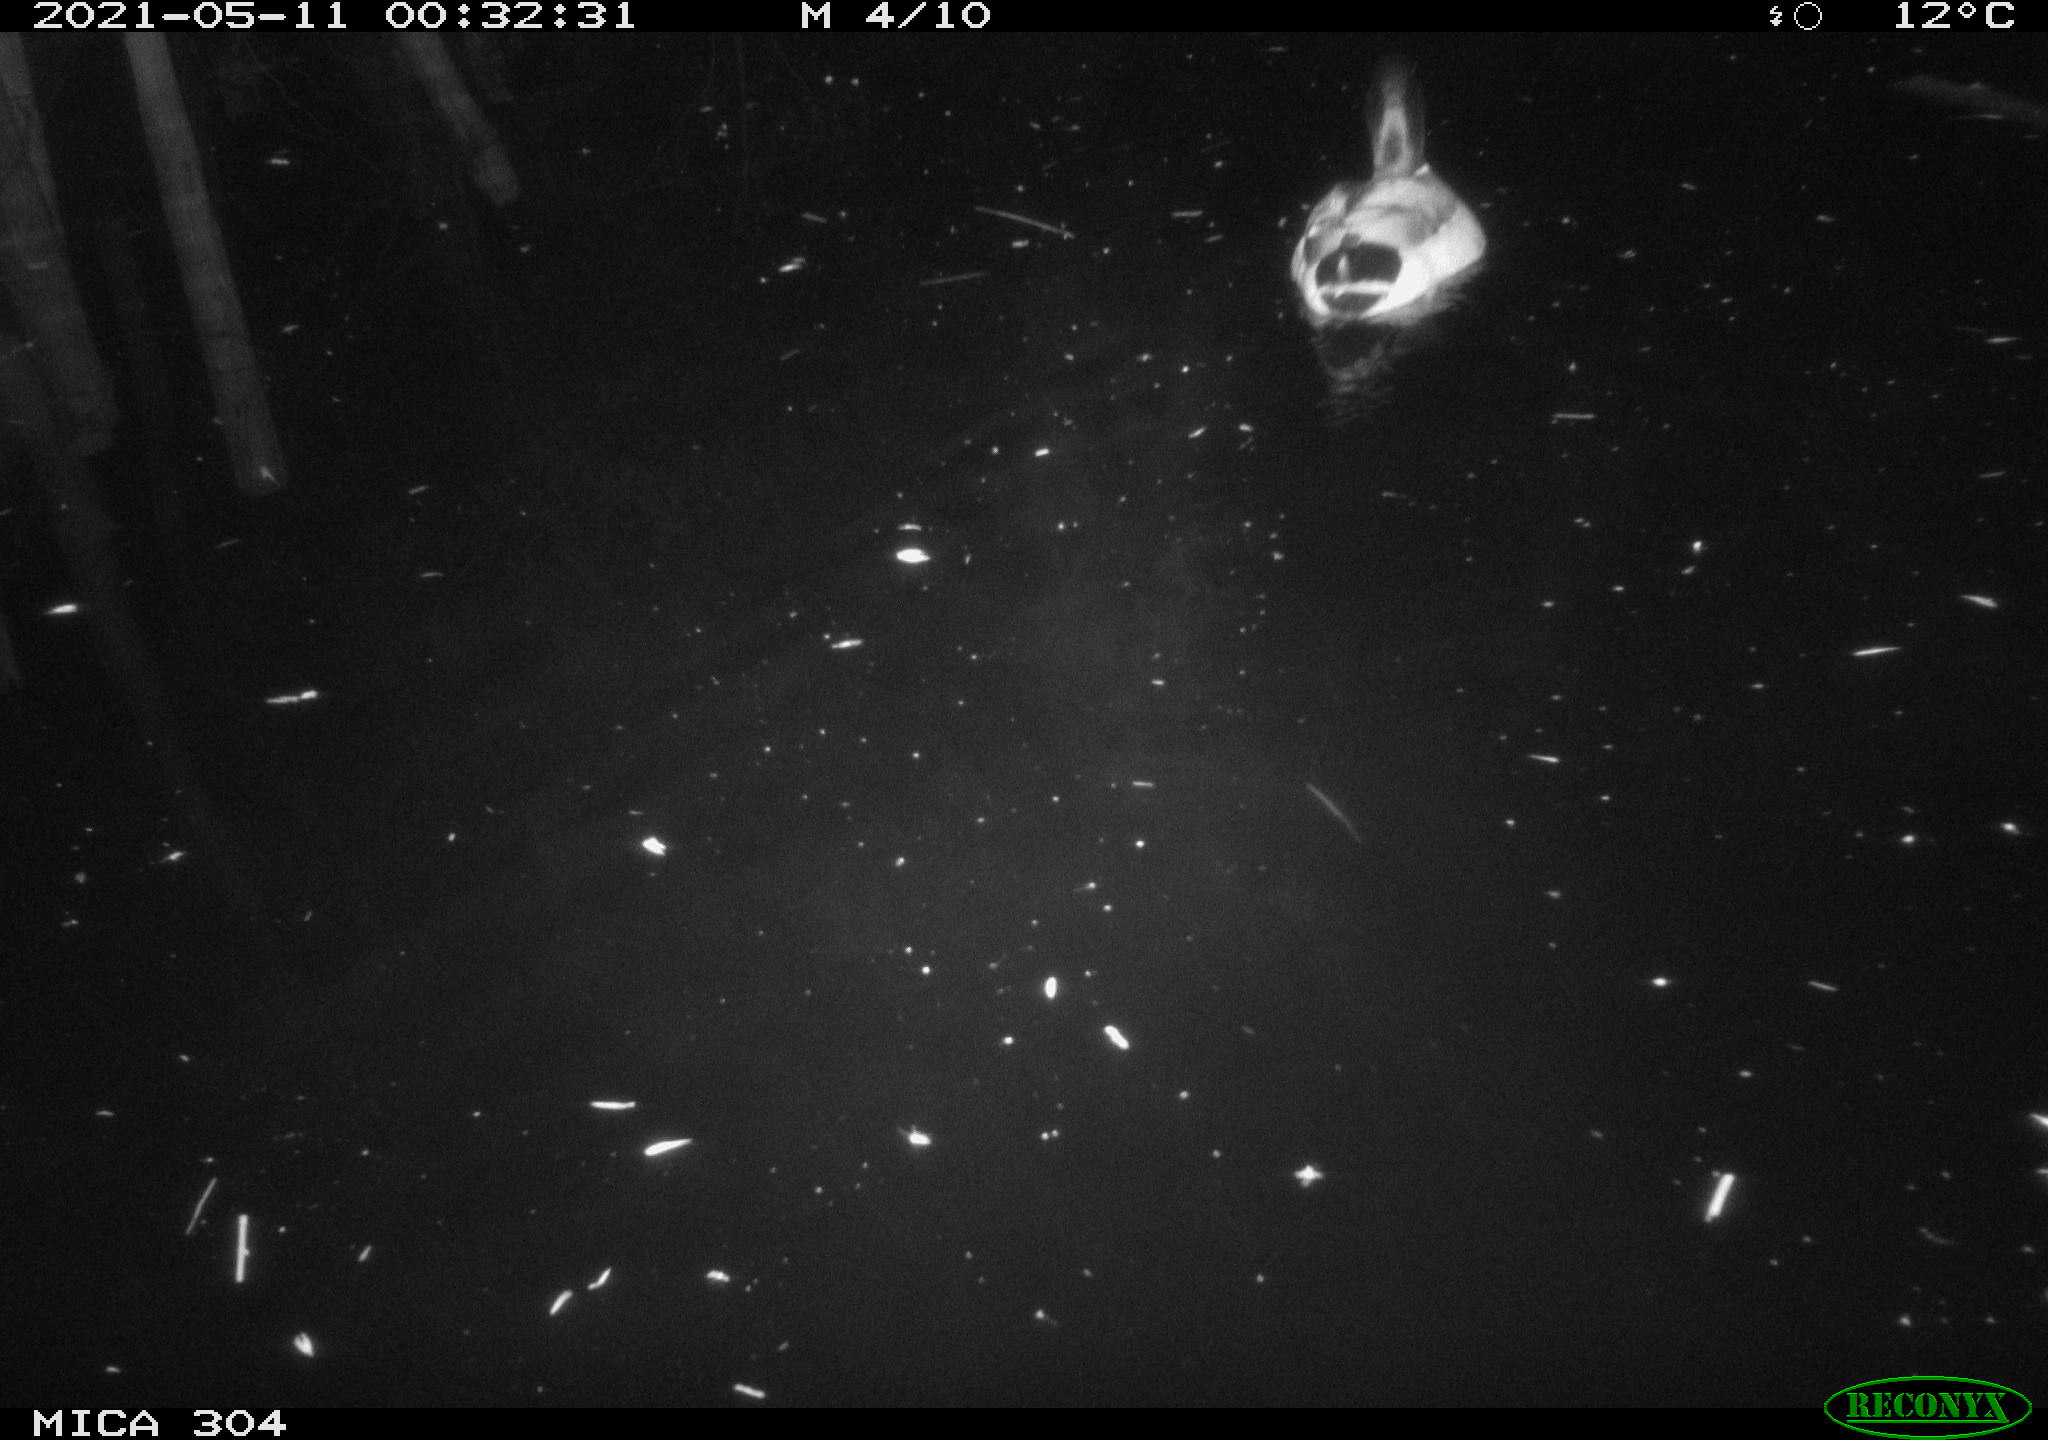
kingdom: Animalia
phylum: Chordata
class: Aves
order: Anseriformes
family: Anatidae
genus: Anas
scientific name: Anas platyrhynchos
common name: Mallard
